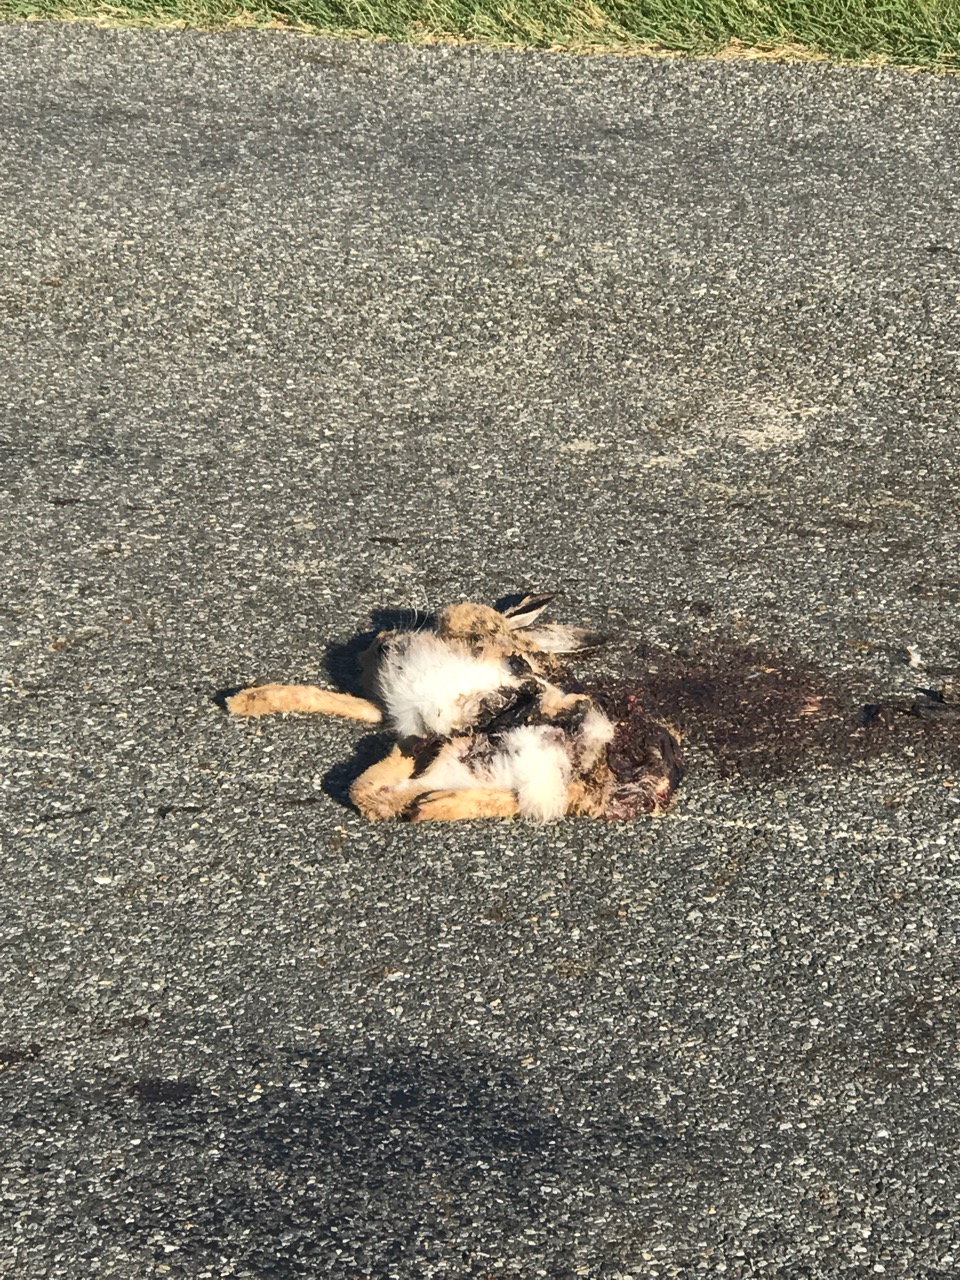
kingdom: Animalia
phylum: Chordata
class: Mammalia
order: Lagomorpha
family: Leporidae
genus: Lepus
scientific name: Lepus europaeus
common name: European hare
